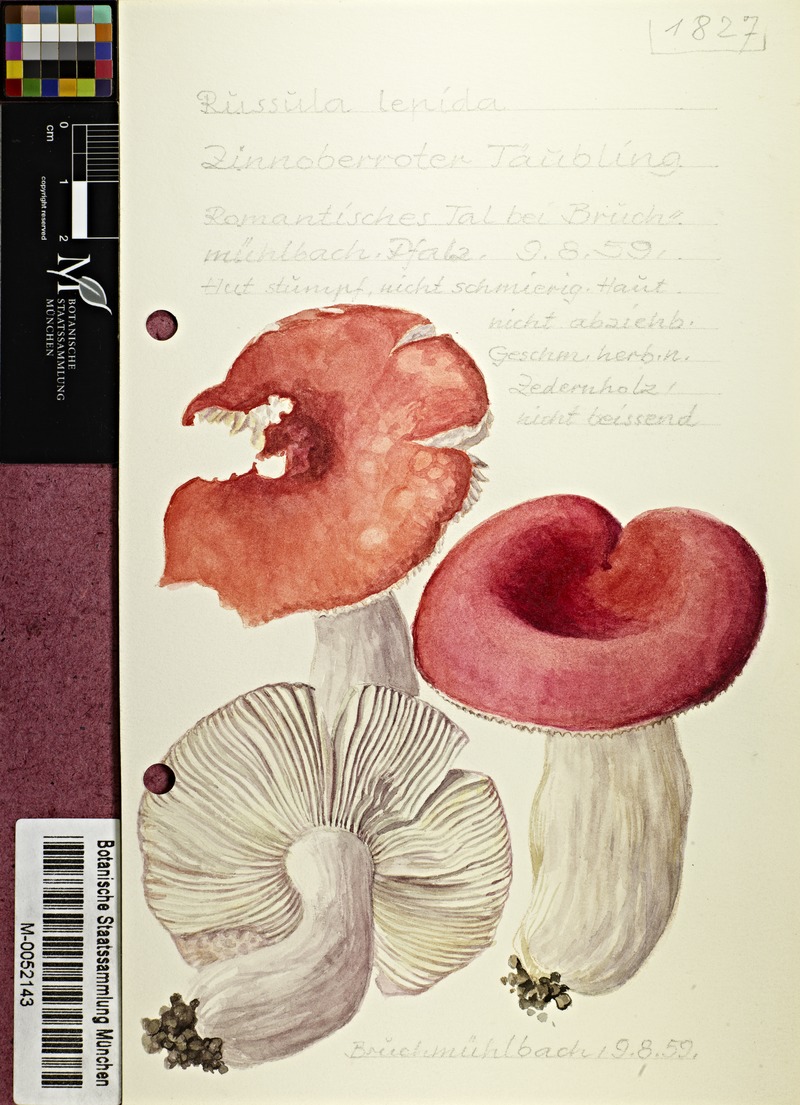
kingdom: Fungi
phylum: Basidiomycota
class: Agaricomycetes
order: Russulales
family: Russulaceae
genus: Russula
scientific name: Russula rosea
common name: Rosy brittlegill
